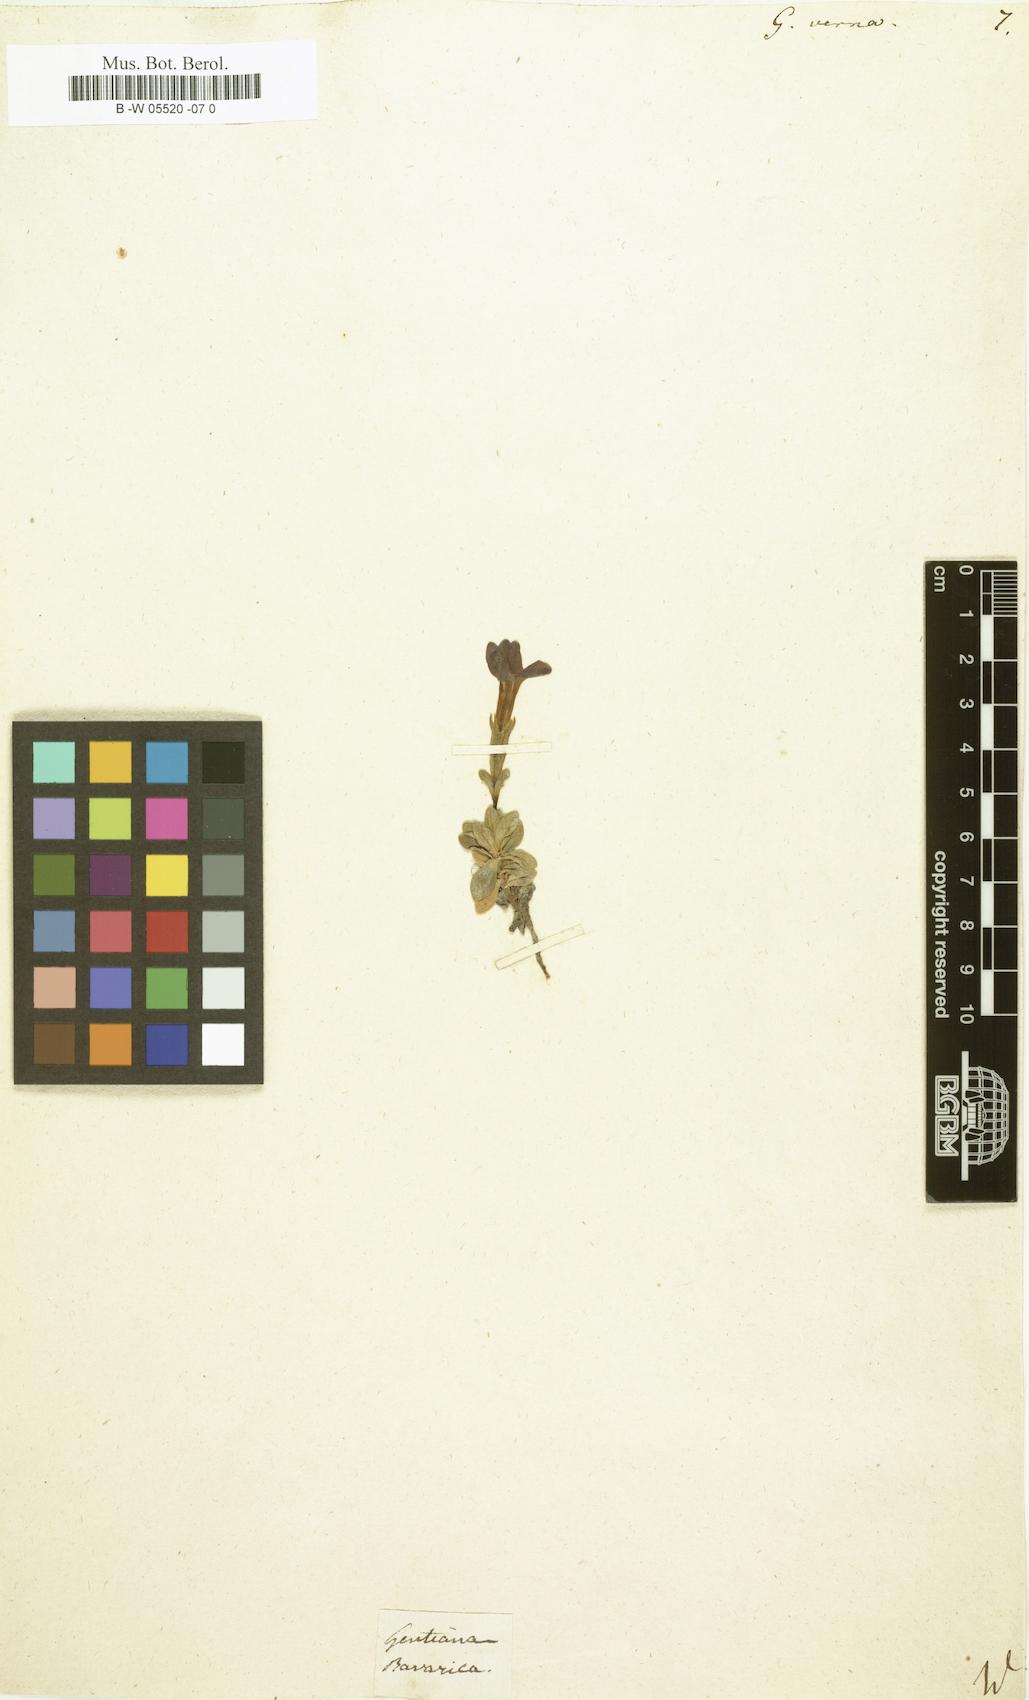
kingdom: Plantae
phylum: Tracheophyta
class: Magnoliopsida
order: Gentianales
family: Gentianaceae
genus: Gentiana
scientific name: Gentiana verna
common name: Spring gentian
